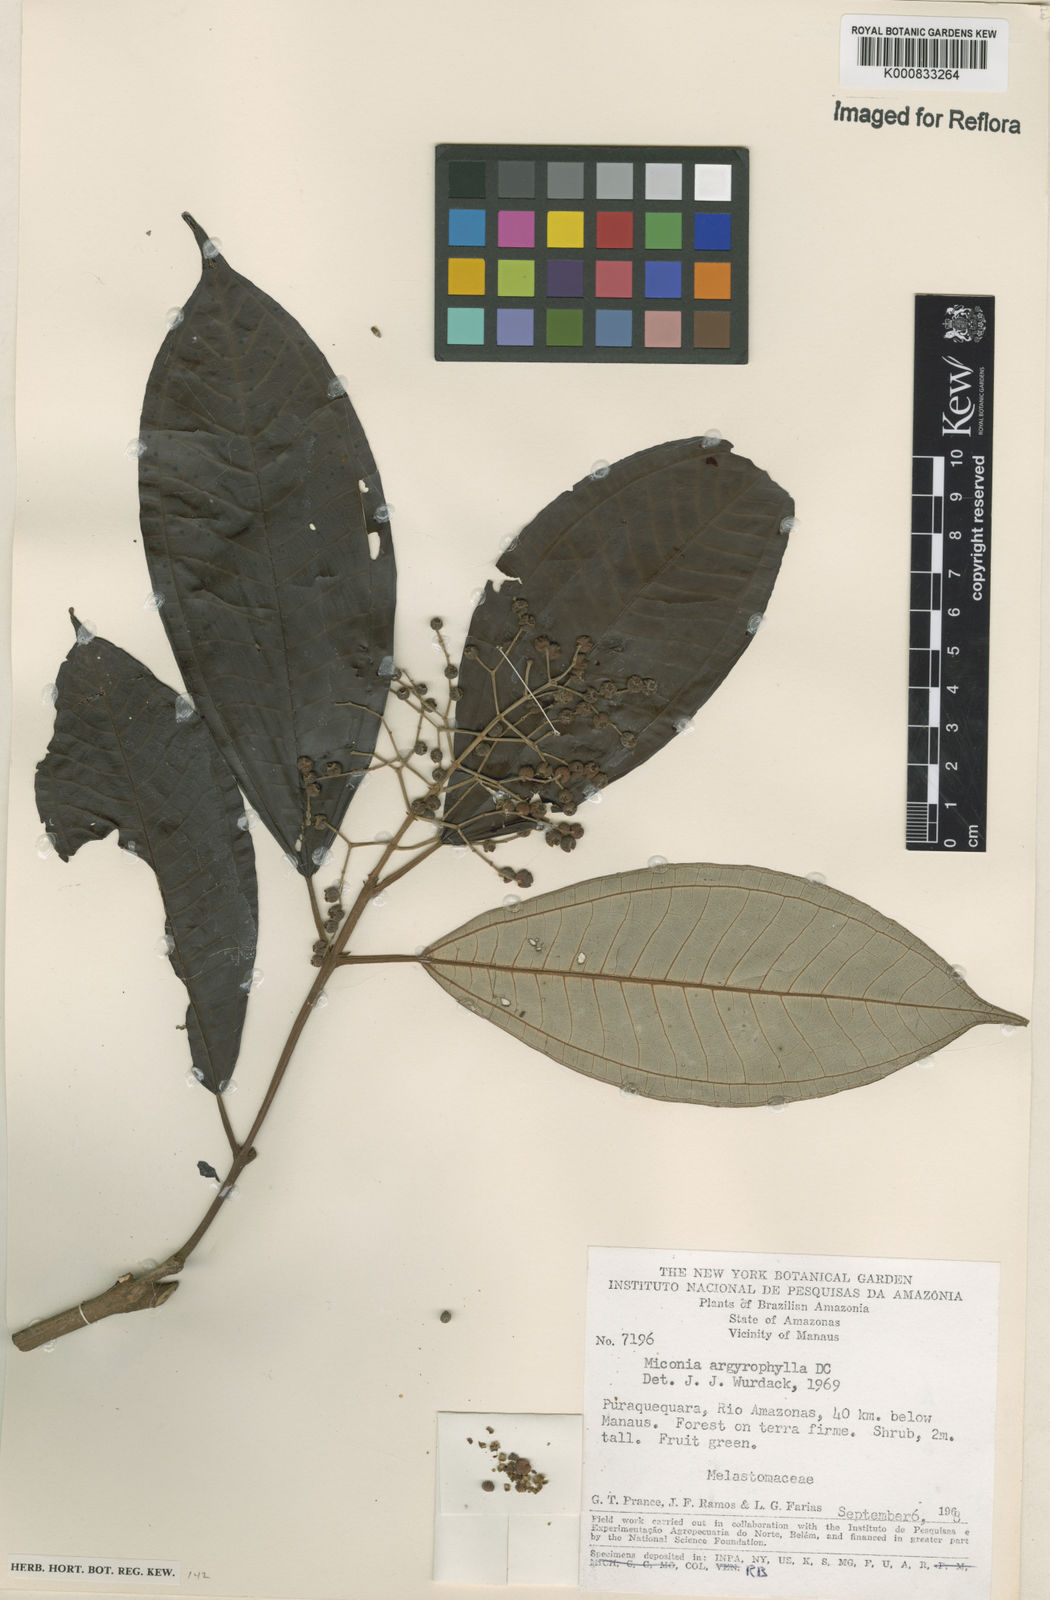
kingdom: Plantae
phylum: Tracheophyta
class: Magnoliopsida
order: Myrtales
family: Melastomataceae
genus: Miconia
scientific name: Miconia argyrophylla
